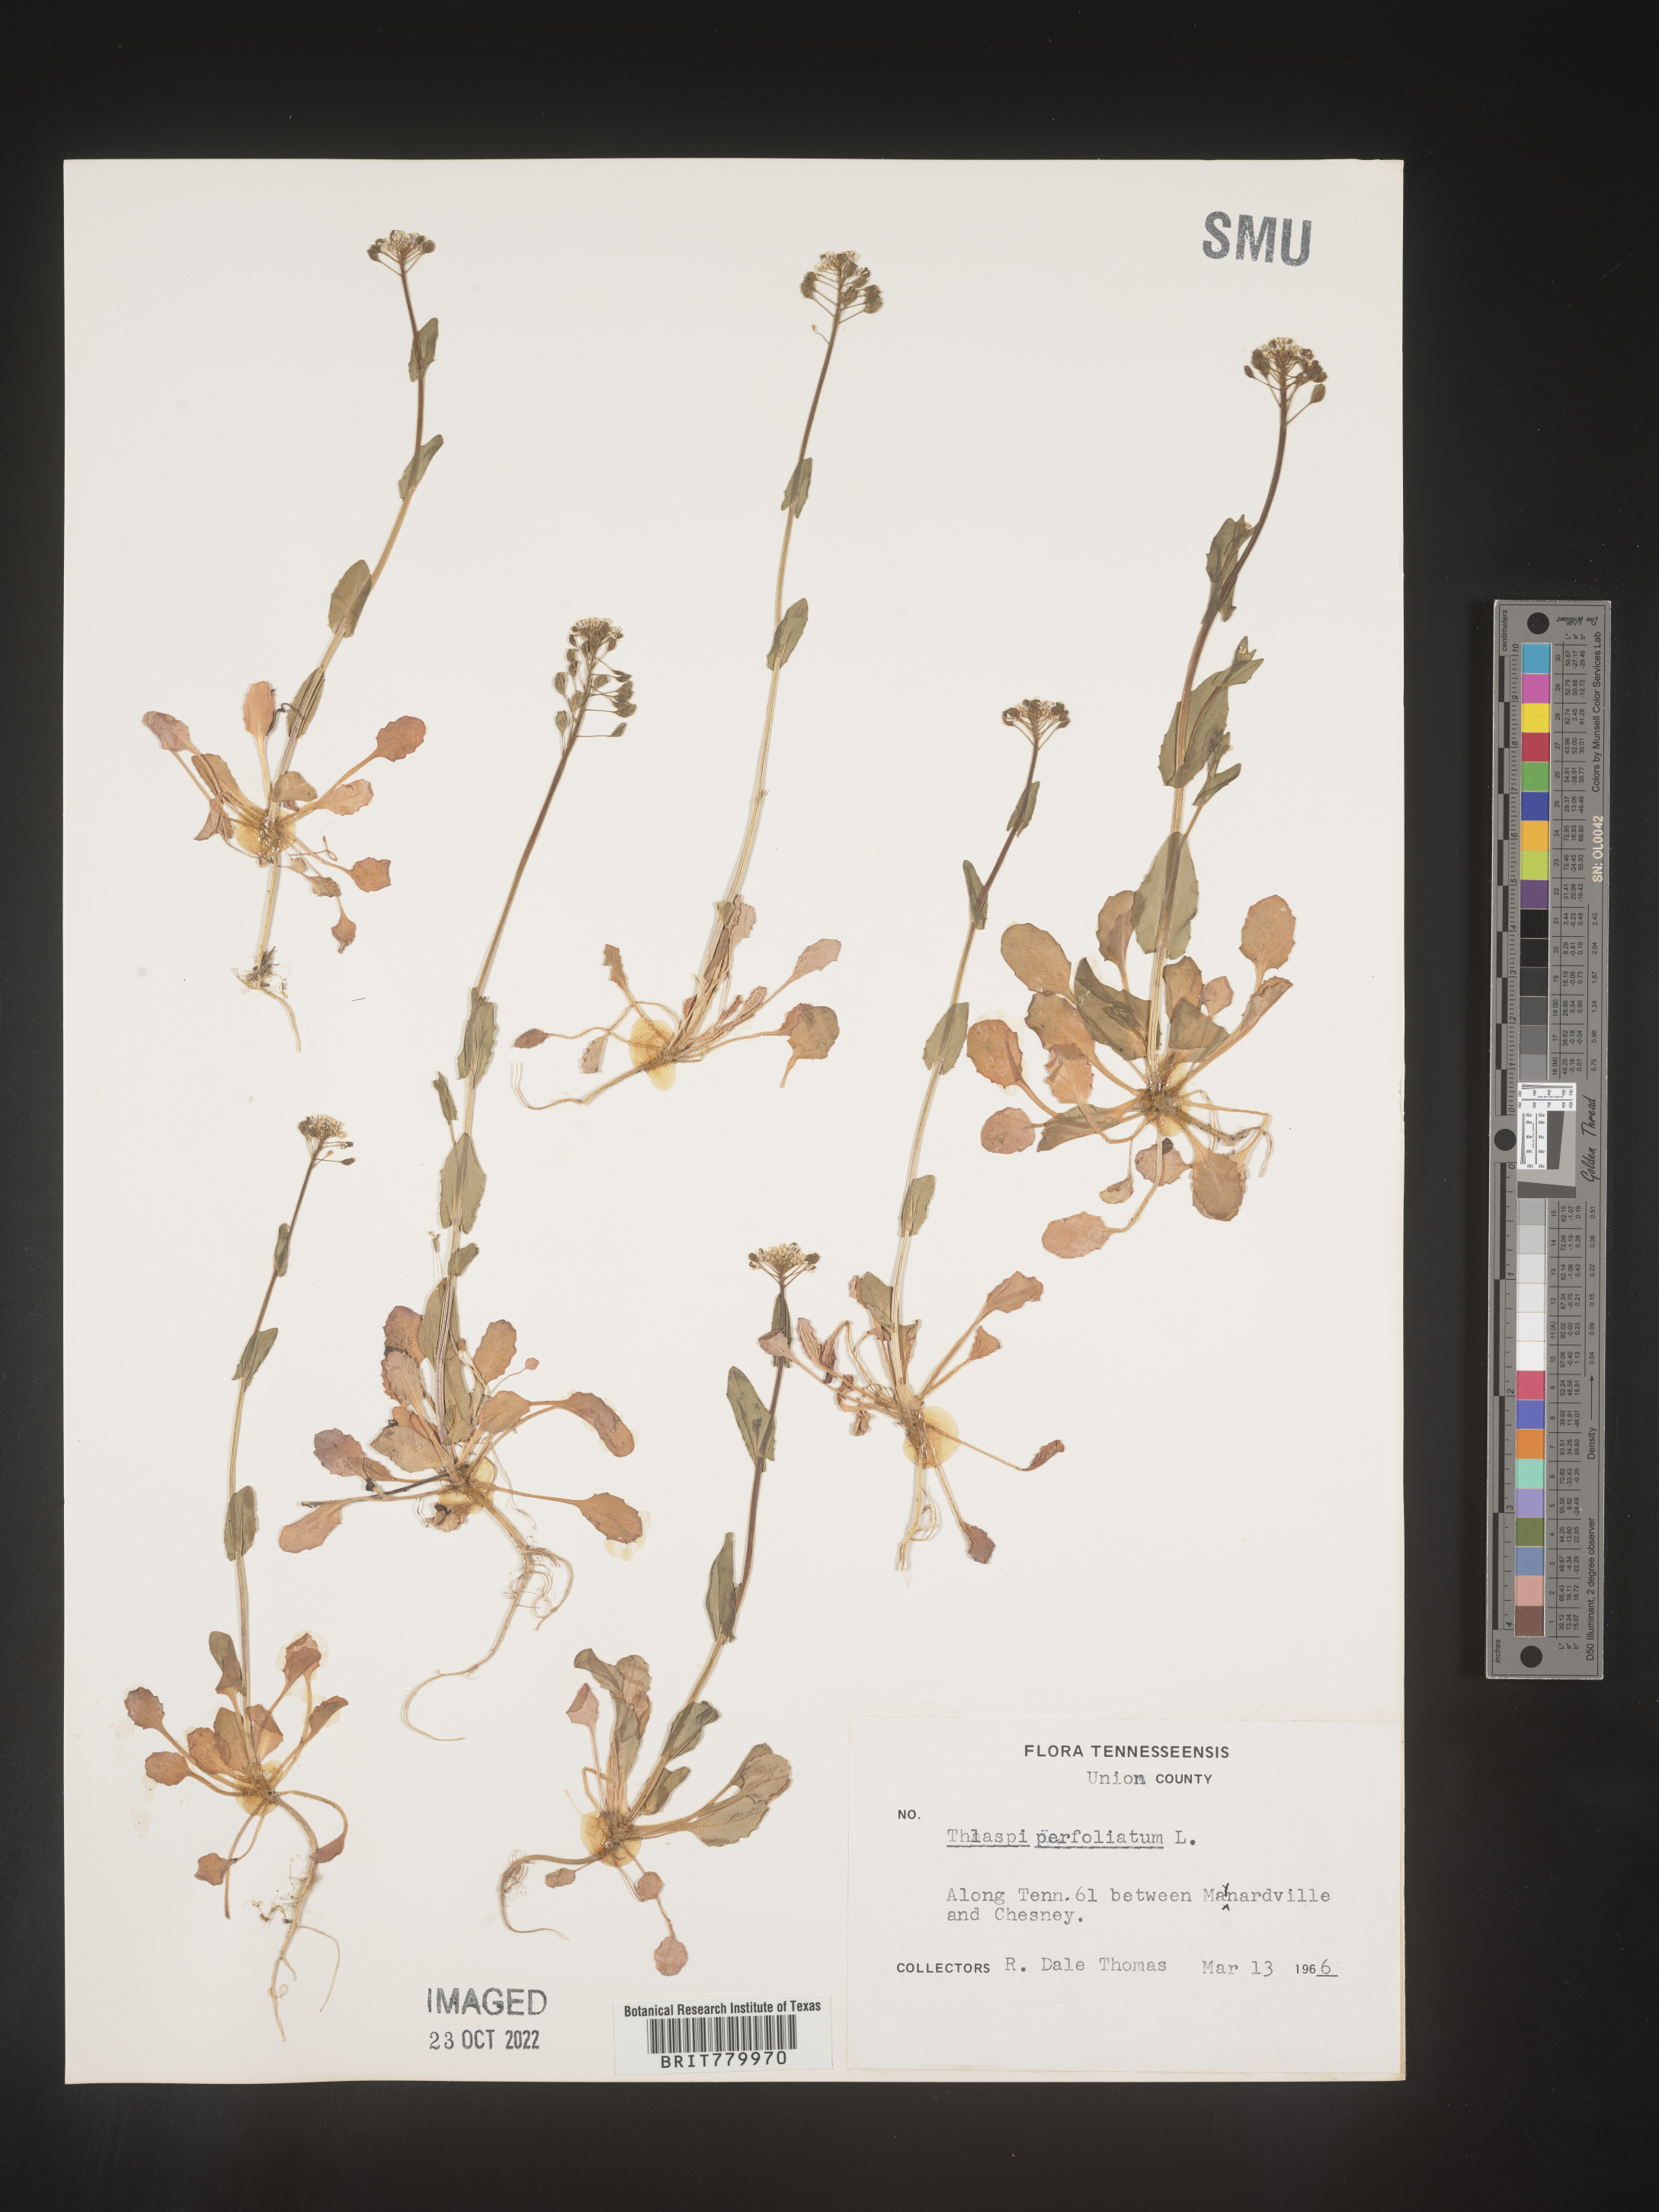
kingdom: Plantae
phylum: Tracheophyta
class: Magnoliopsida
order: Brassicales
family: Brassicaceae
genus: Thlaspi
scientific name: Thlaspi
